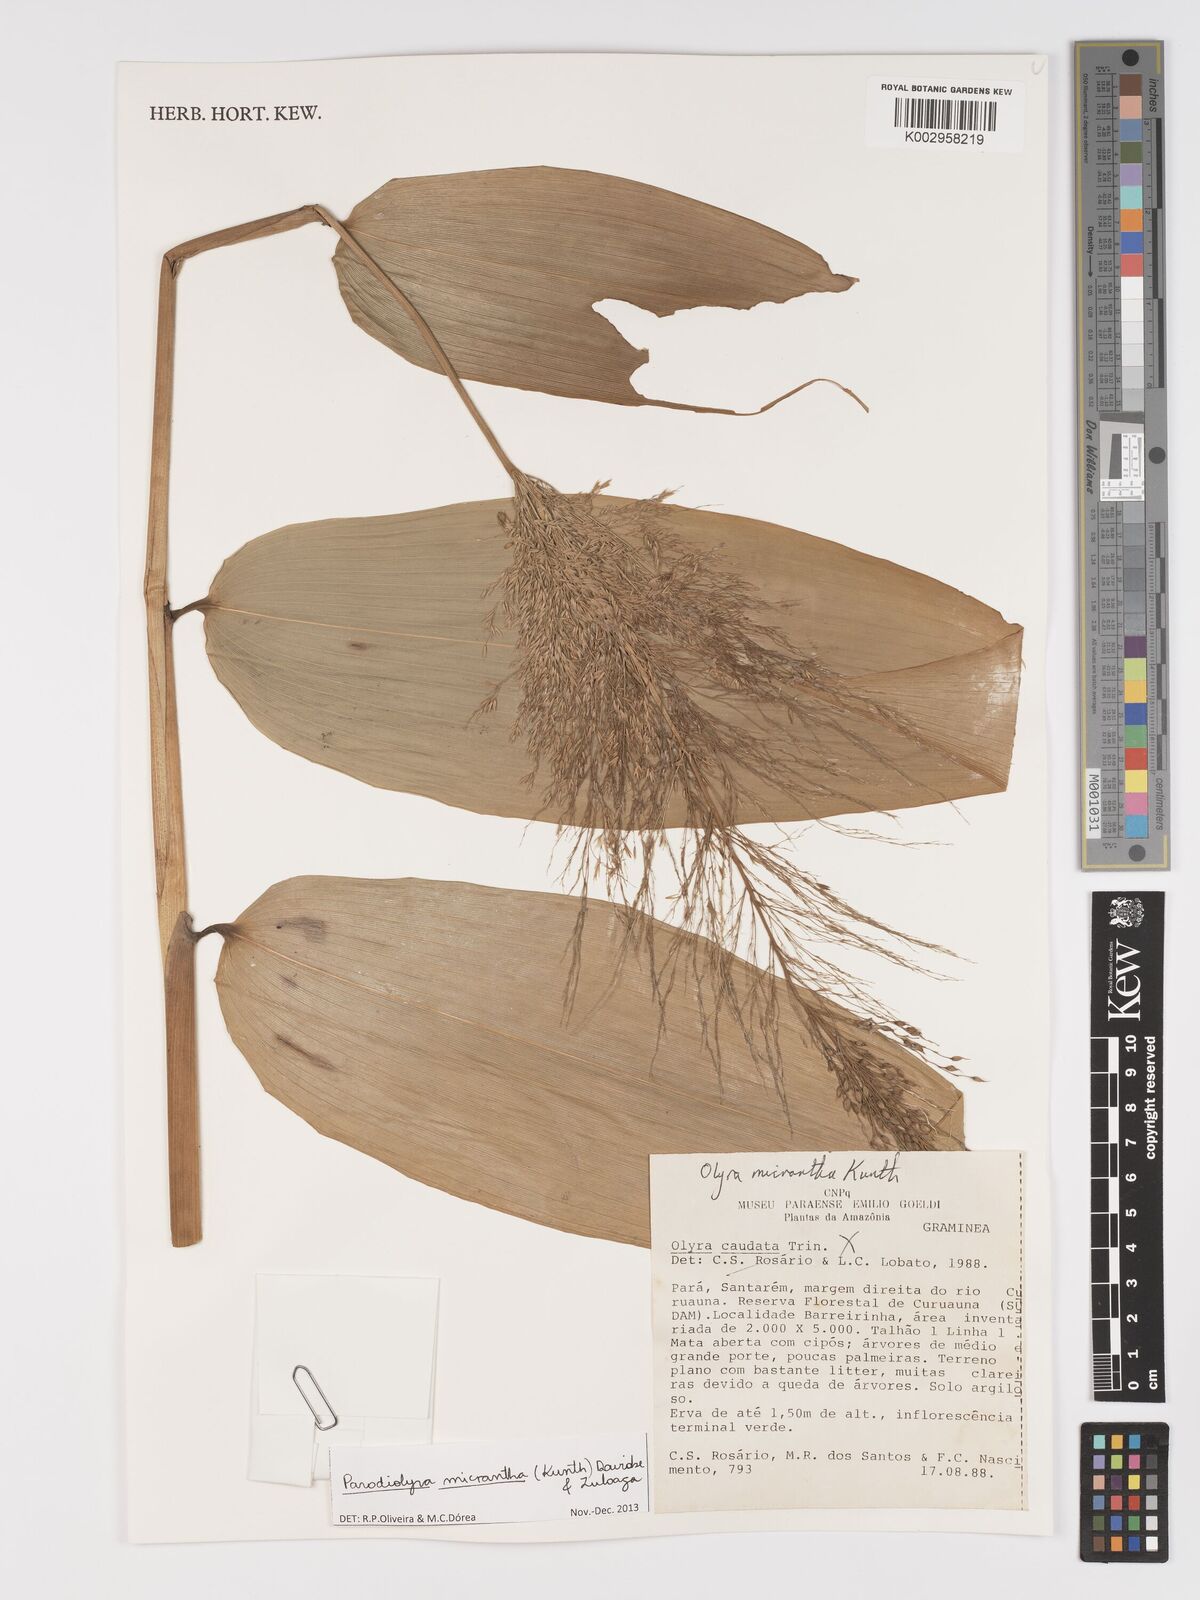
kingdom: Plantae
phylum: Tracheophyta
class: Liliopsida
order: Poales
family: Poaceae
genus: Taquara
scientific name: Taquara micrantha
